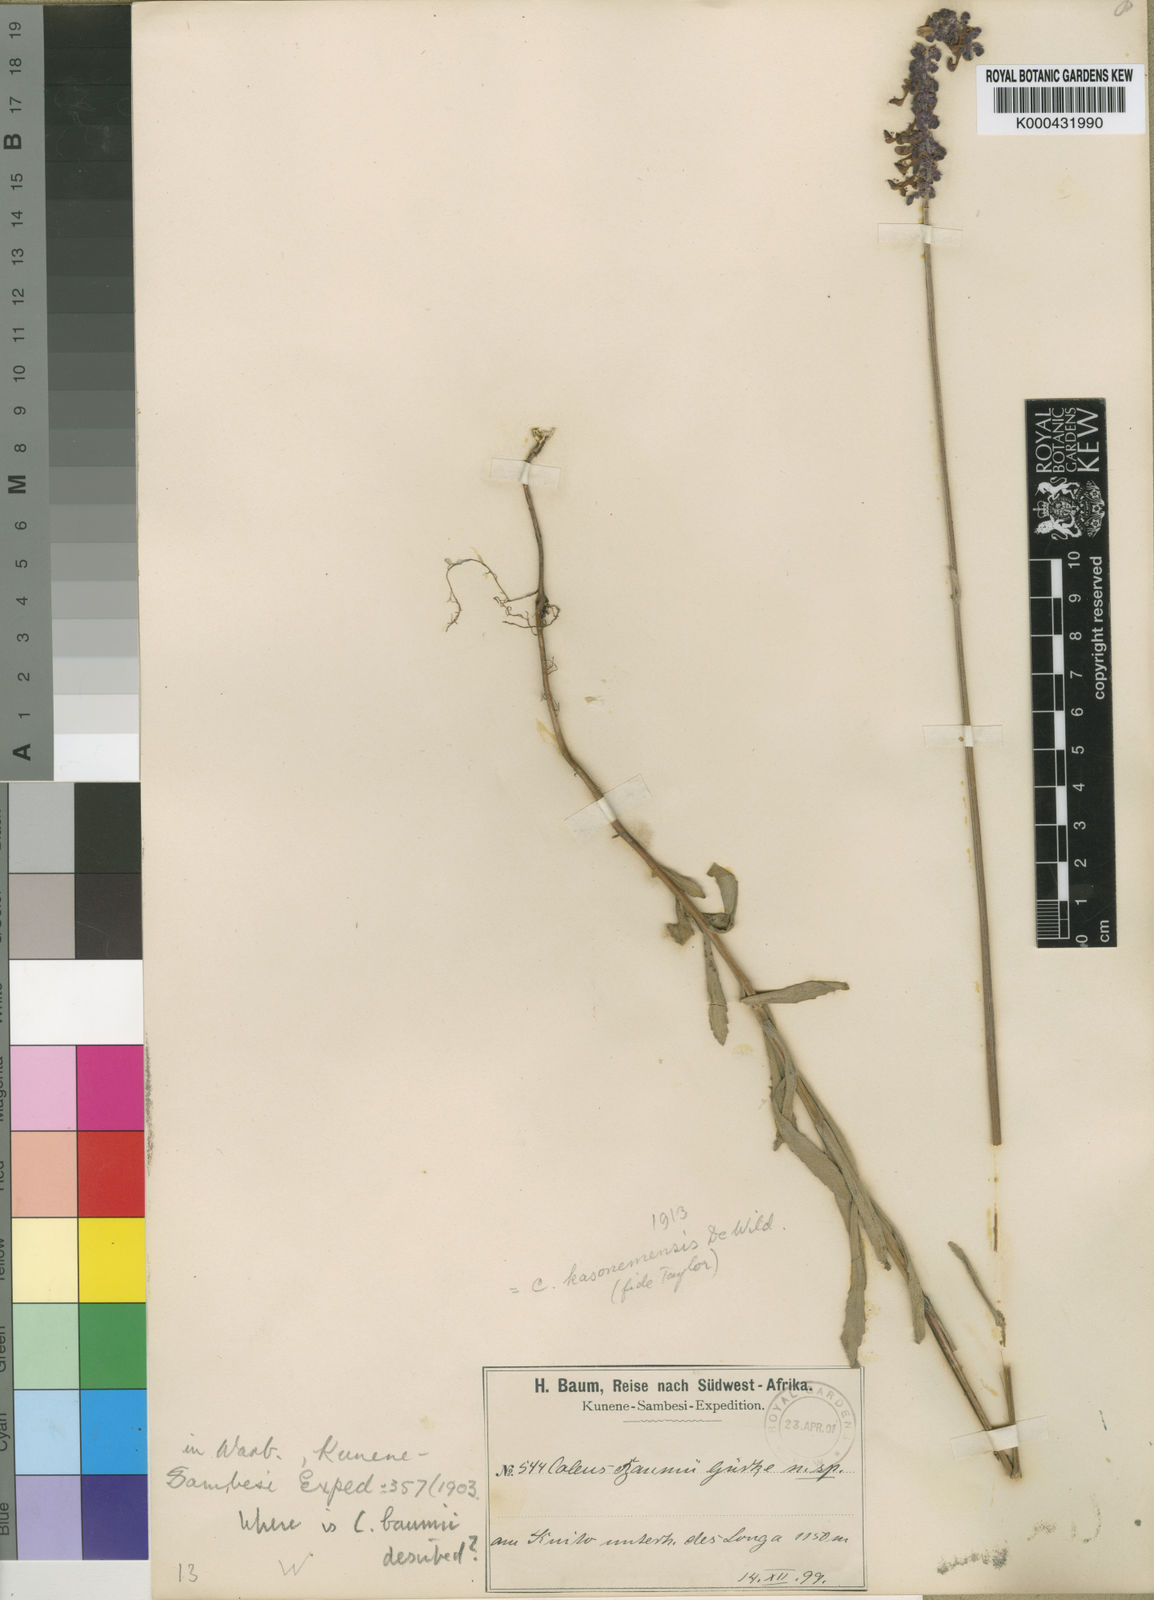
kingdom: Plantae
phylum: Tracheophyta
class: Magnoliopsida
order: Lamiales
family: Lamiaceae
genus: Coleus
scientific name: Coleus betonicifolius
